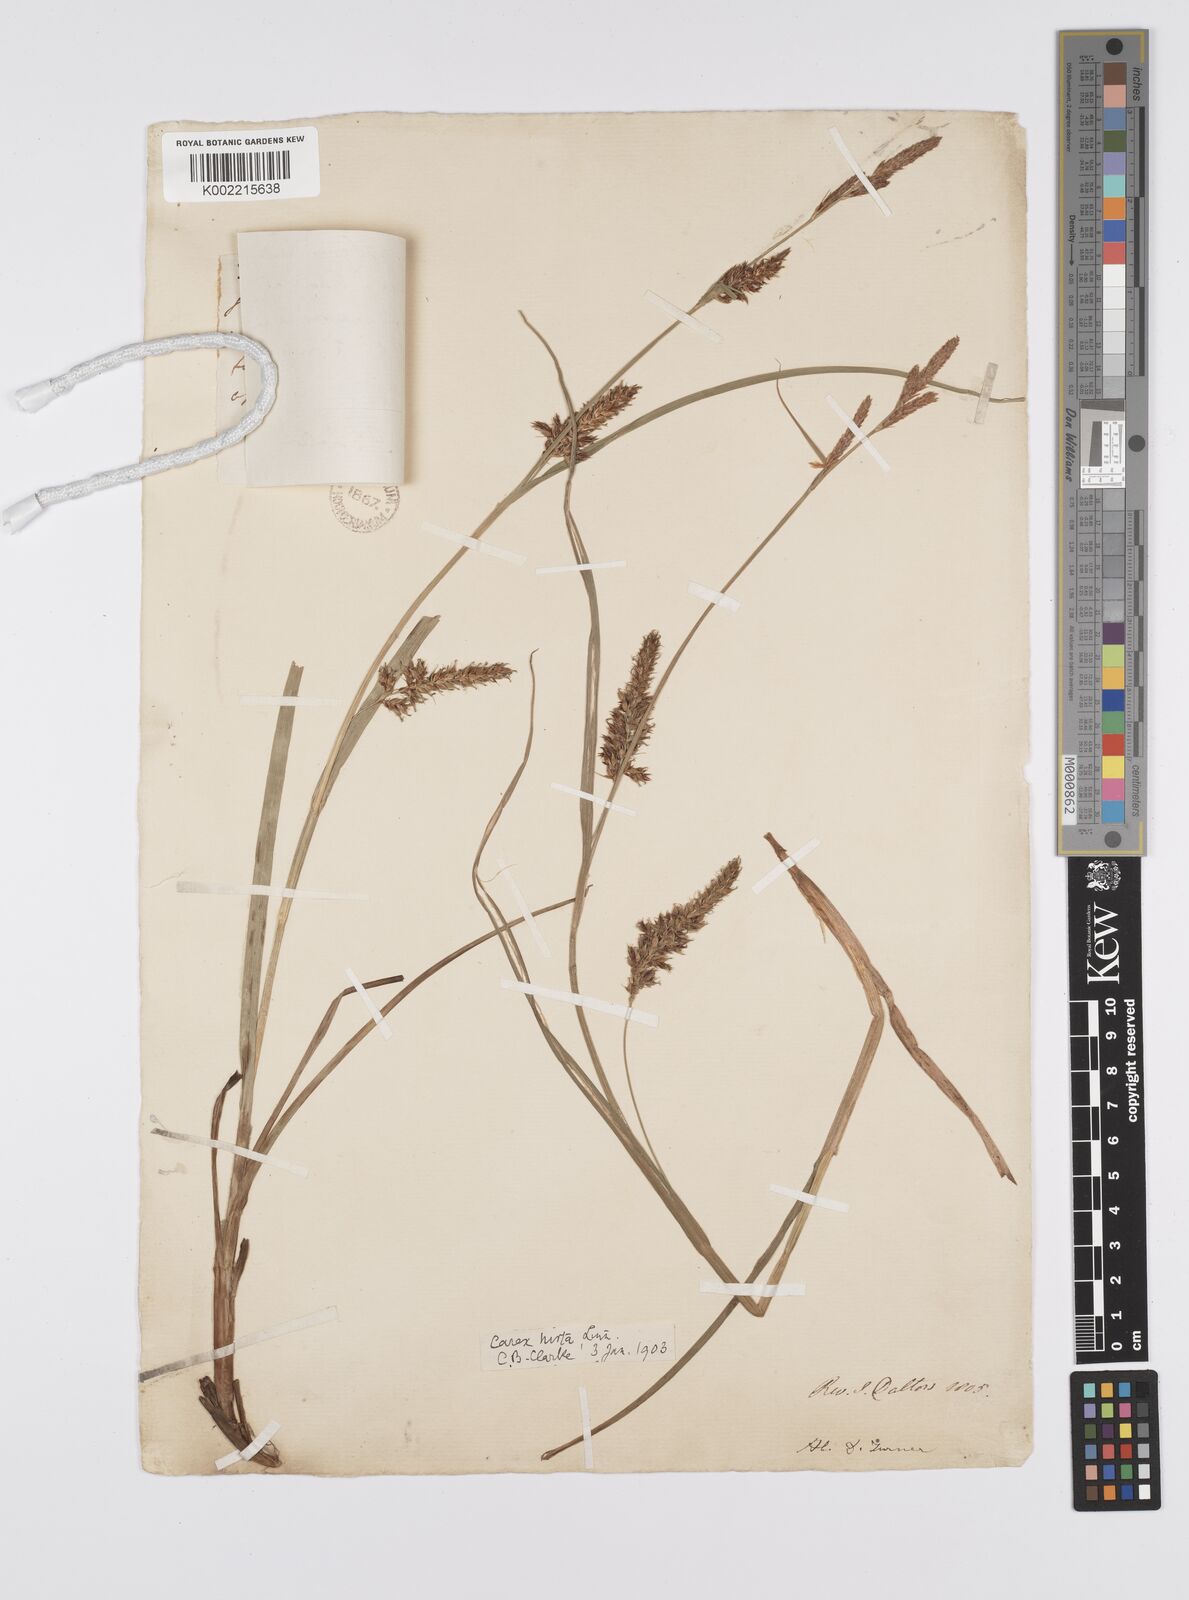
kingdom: Plantae
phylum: Tracheophyta
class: Liliopsida
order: Poales
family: Cyperaceae
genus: Carex
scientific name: Carex hirta
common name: Hairy sedge
